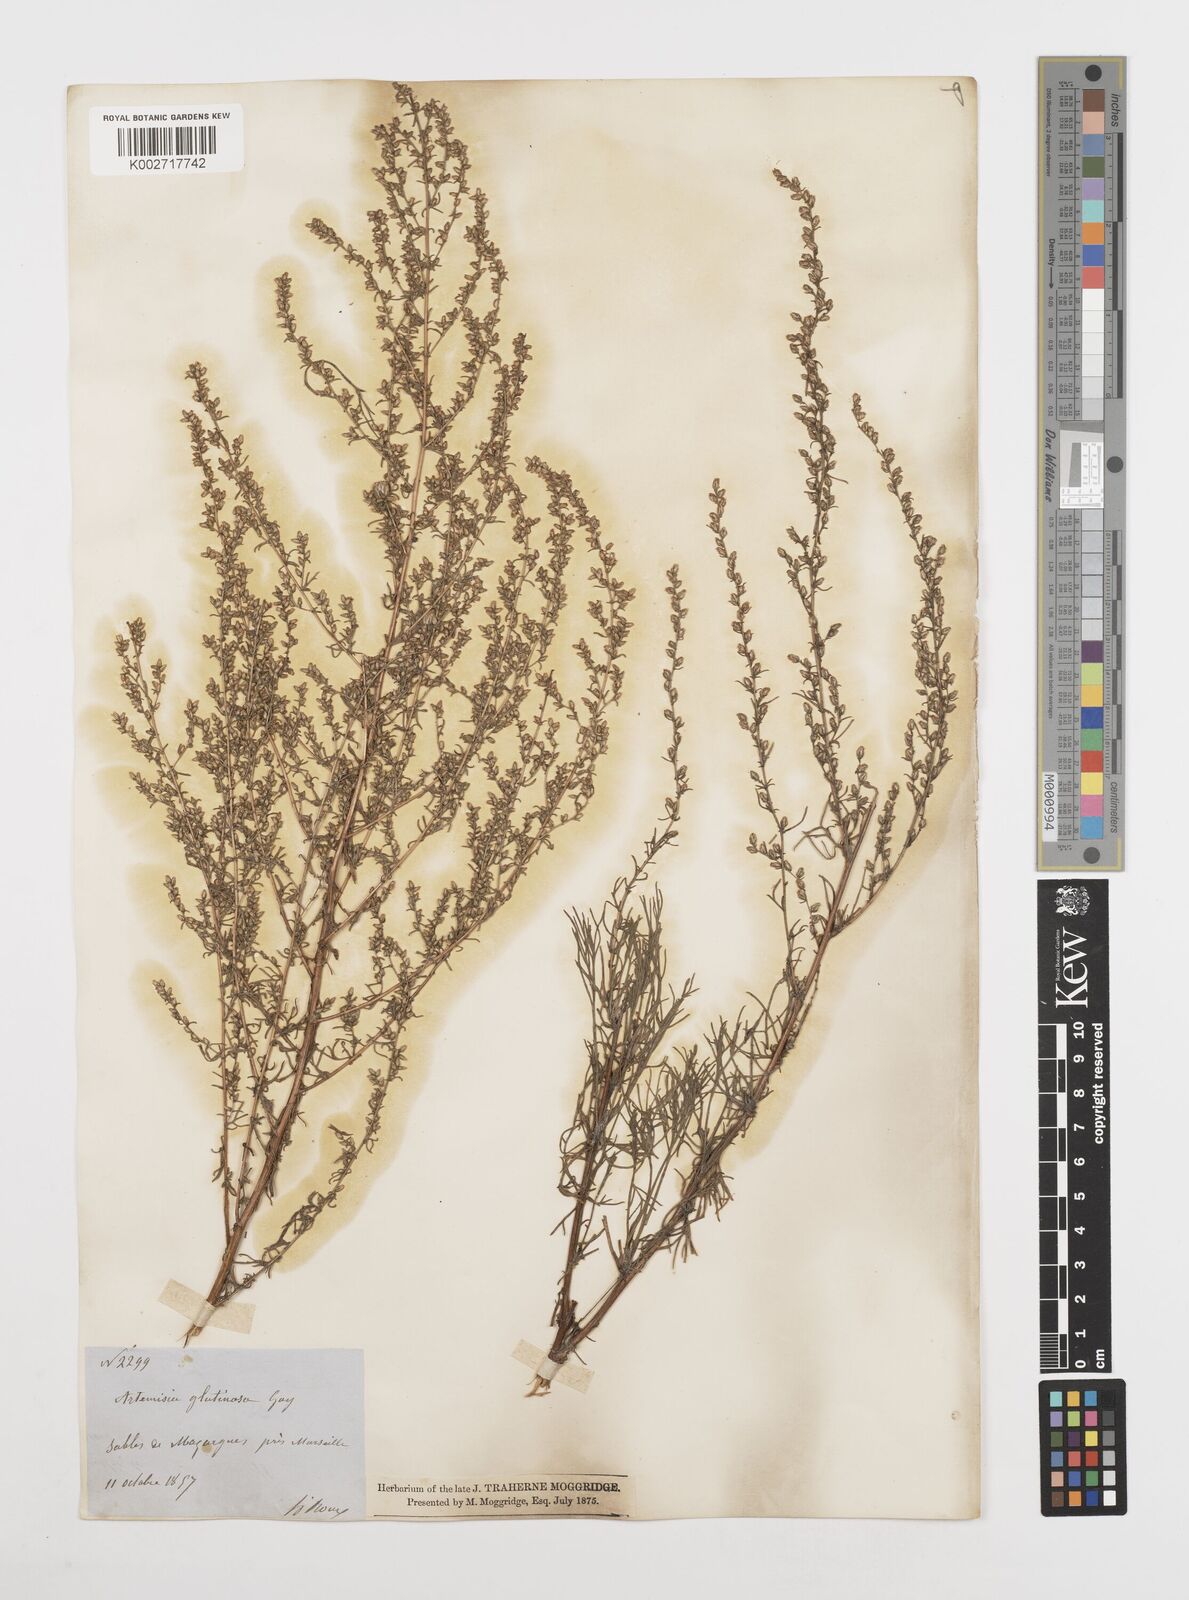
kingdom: Plantae
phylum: Tracheophyta
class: Magnoliopsida
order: Asterales
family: Asteraceae
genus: Artemisia
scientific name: Artemisia campestris
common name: Field wormwood
